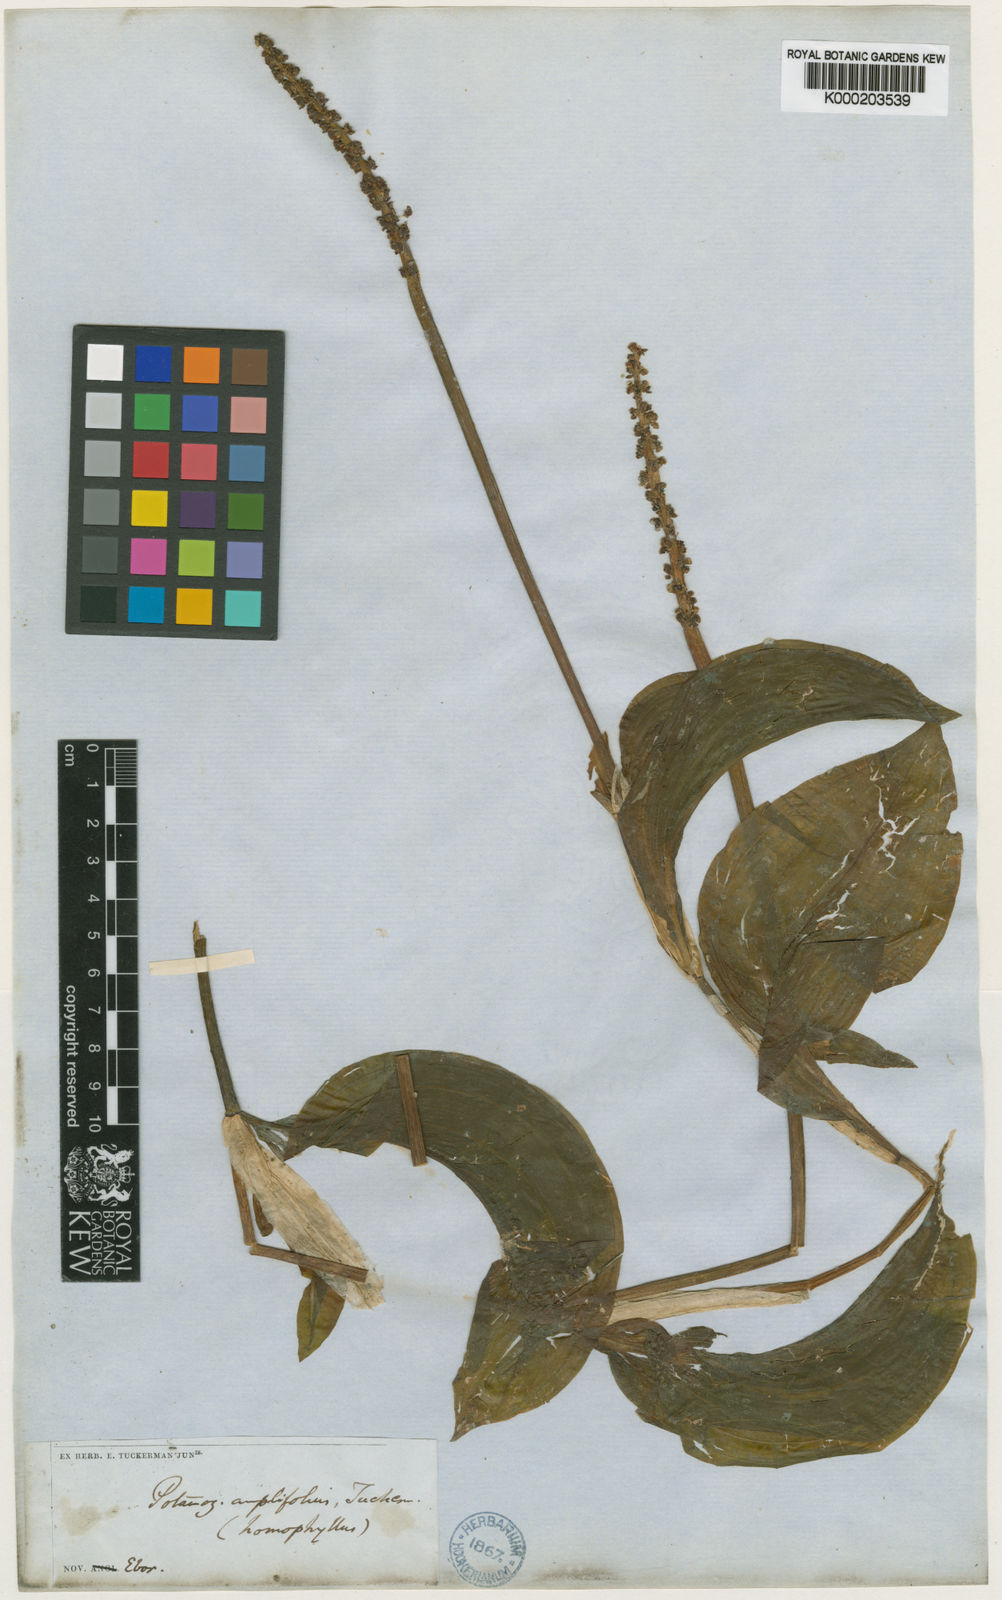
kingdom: Plantae
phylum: Tracheophyta
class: Liliopsida
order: Alismatales
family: Potamogetonaceae
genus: Potamogeton
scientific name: Potamogeton amplifolius
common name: Broad-leaved pondweed
